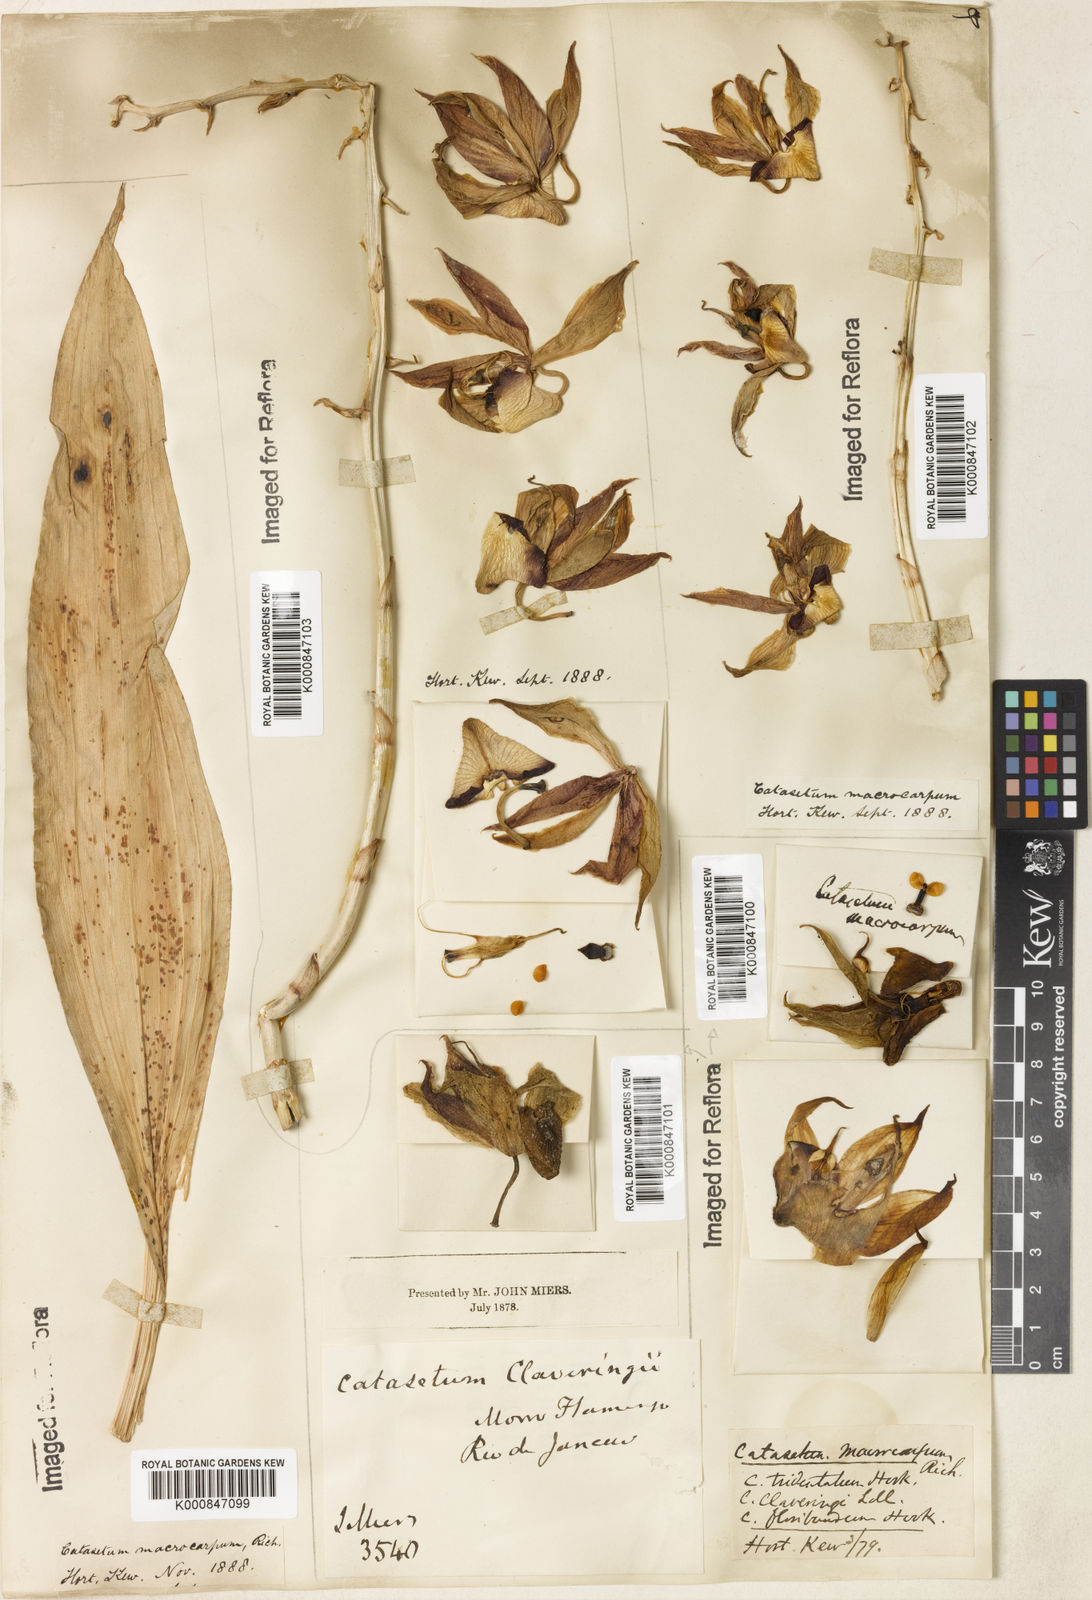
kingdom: Plantae
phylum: Tracheophyta
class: Liliopsida
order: Asparagales
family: Orchidaceae
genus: Catasetum
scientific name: Catasetum macrocarpum
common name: Jumping orchid
